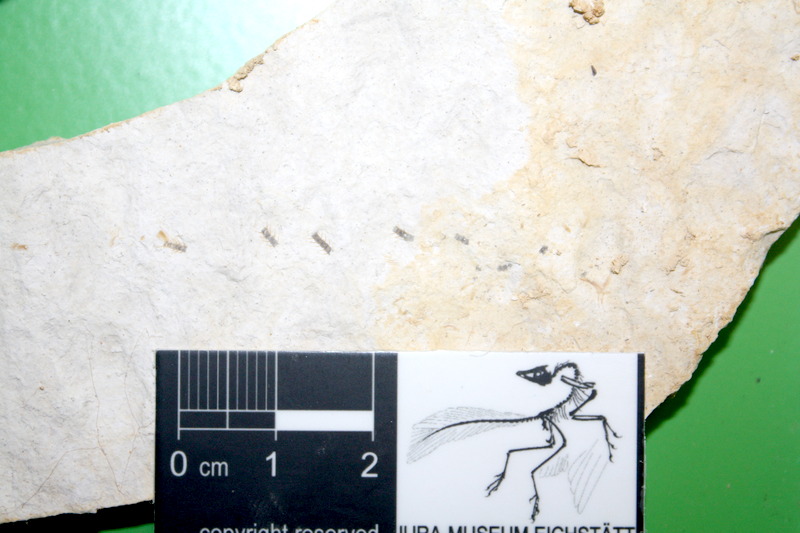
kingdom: Animalia
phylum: Chordata
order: Salmoniformes
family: Orthogonikleithridae
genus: Orthogonikleithrus
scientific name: Orthogonikleithrus hoelli
